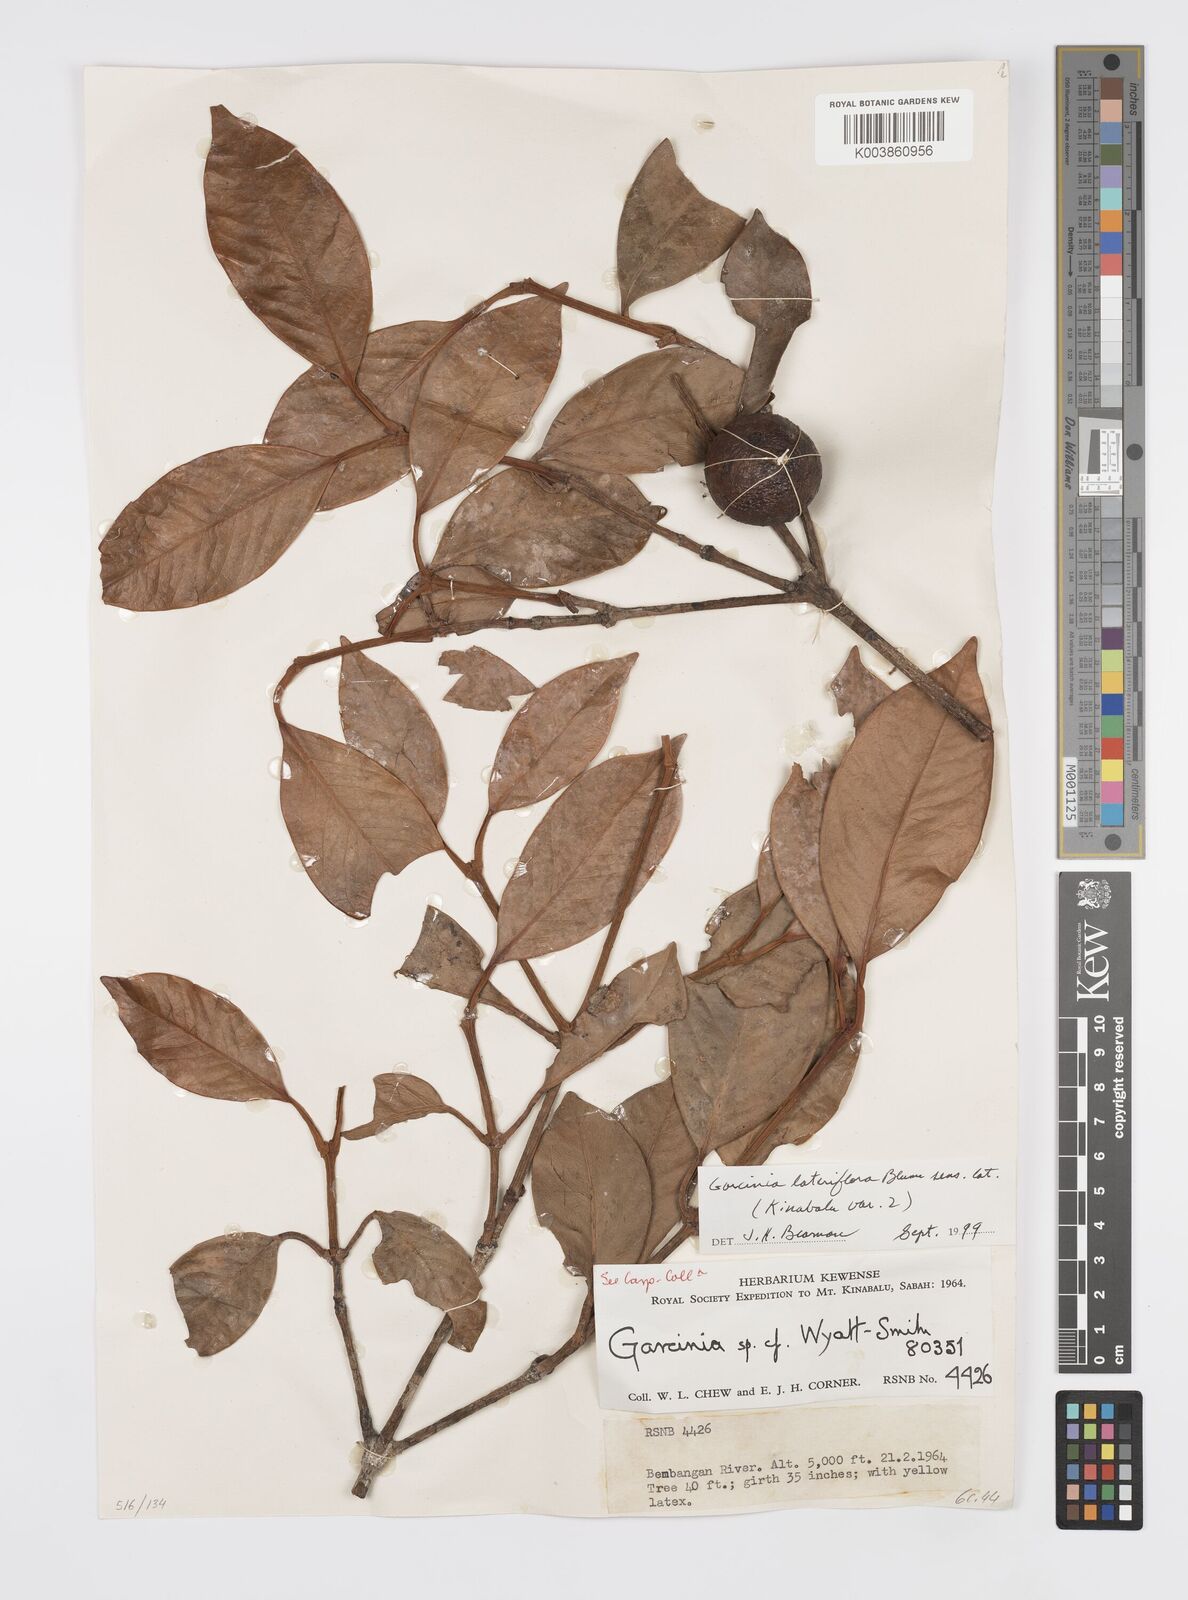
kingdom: Plantae
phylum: Tracheophyta
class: Magnoliopsida
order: Malpighiales
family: Clusiaceae
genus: Garcinia
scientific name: Garcinia lateriflora
